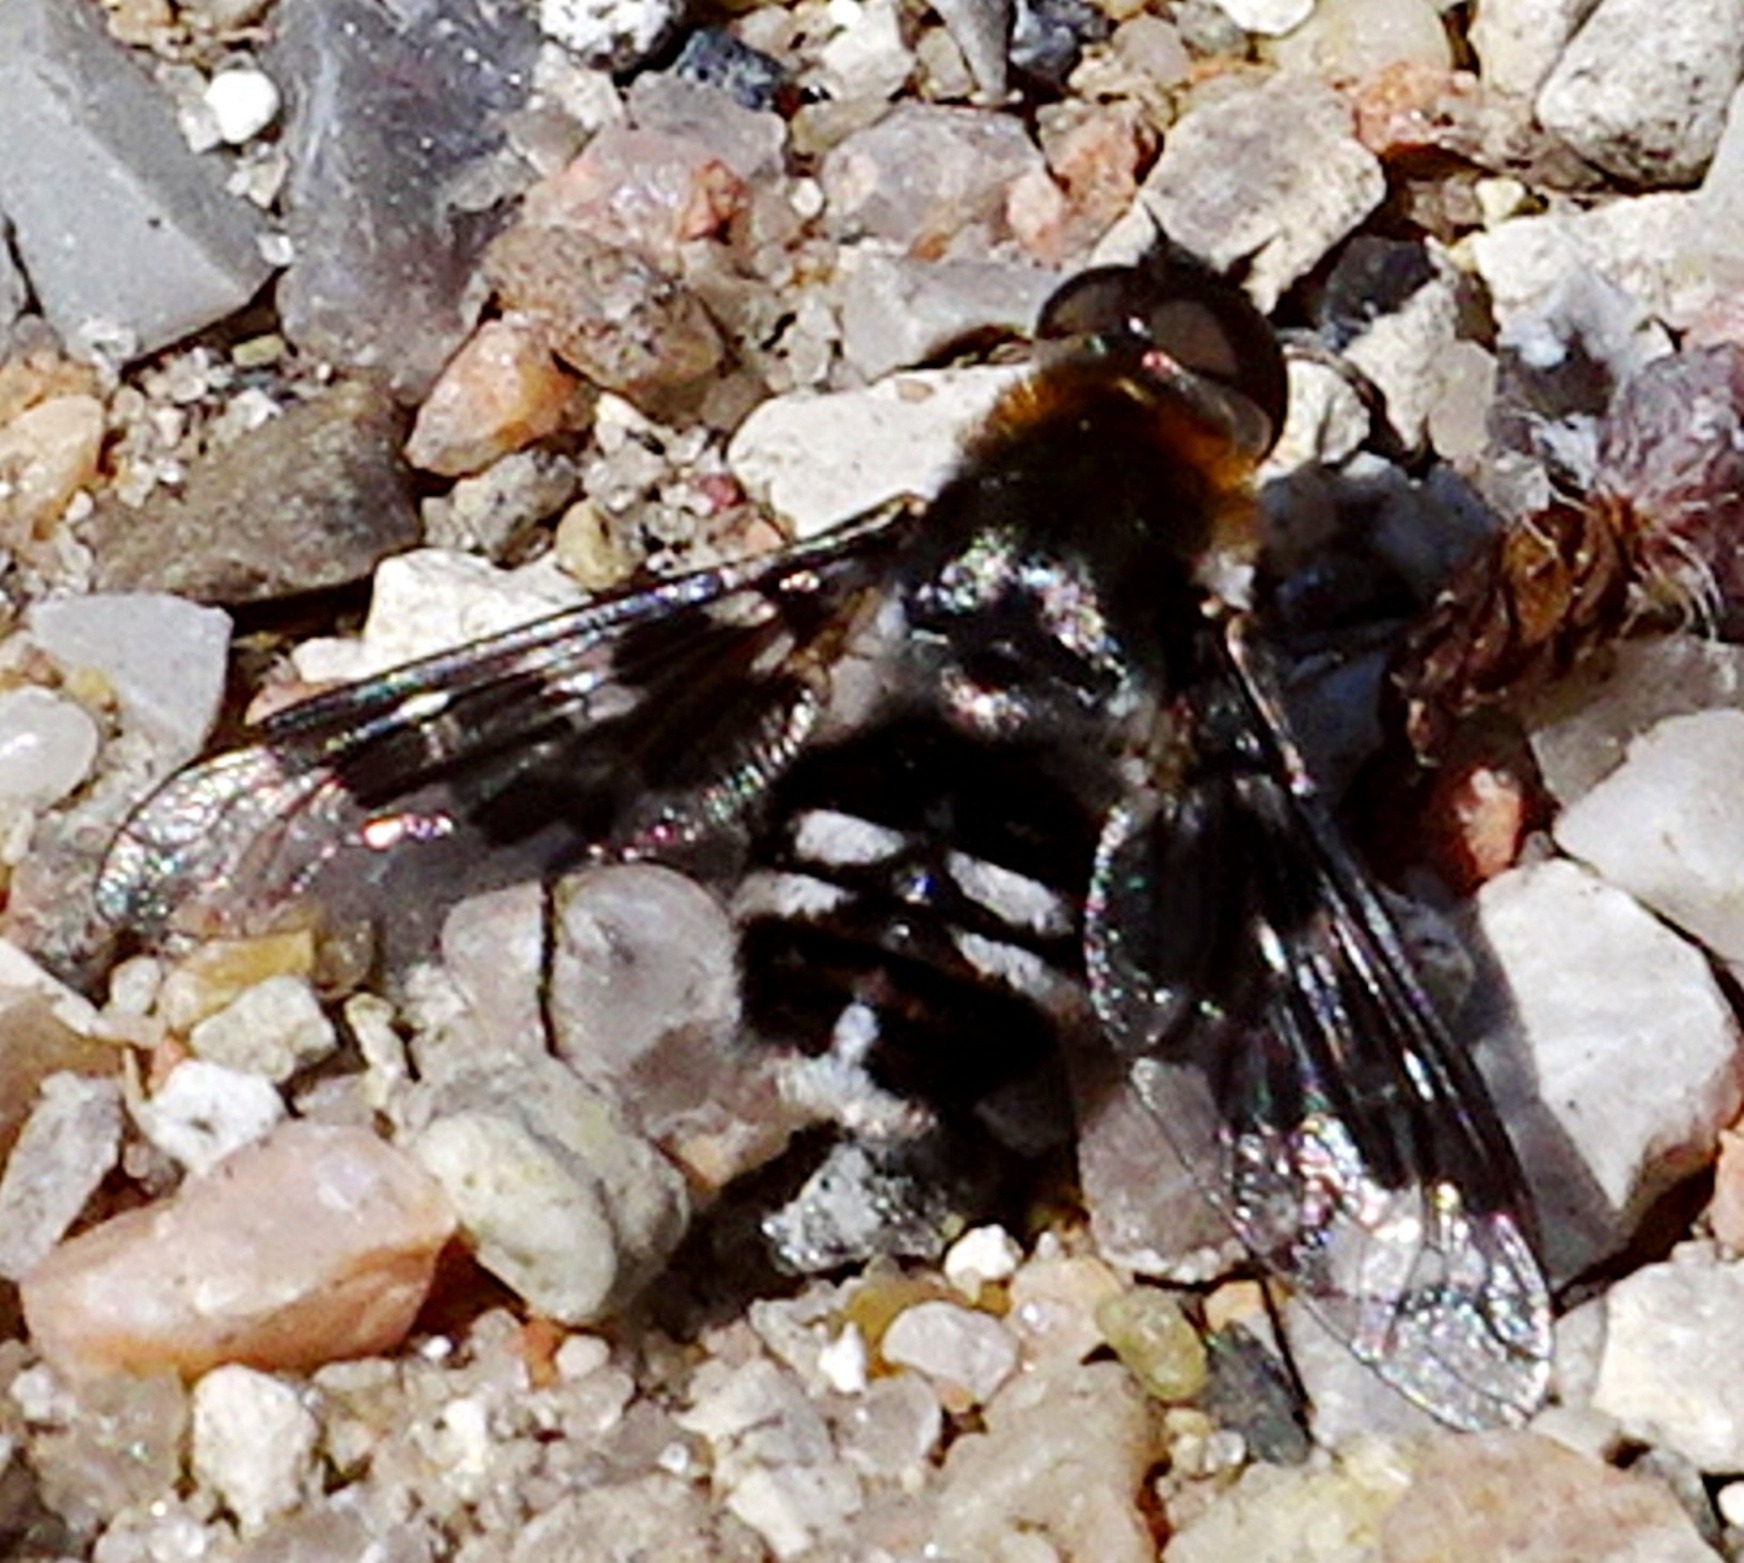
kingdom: Animalia
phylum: Arthropoda
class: Insecta
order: Diptera
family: Bombyliidae
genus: Thyridanthrax
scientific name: Thyridanthrax fenestratus
